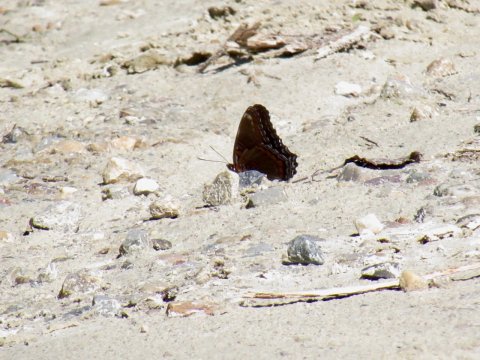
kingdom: Animalia
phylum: Arthropoda
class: Insecta
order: Lepidoptera
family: Nymphalidae
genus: Limenitis
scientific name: Limenitis arthemis
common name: Red-spotted Admiral
